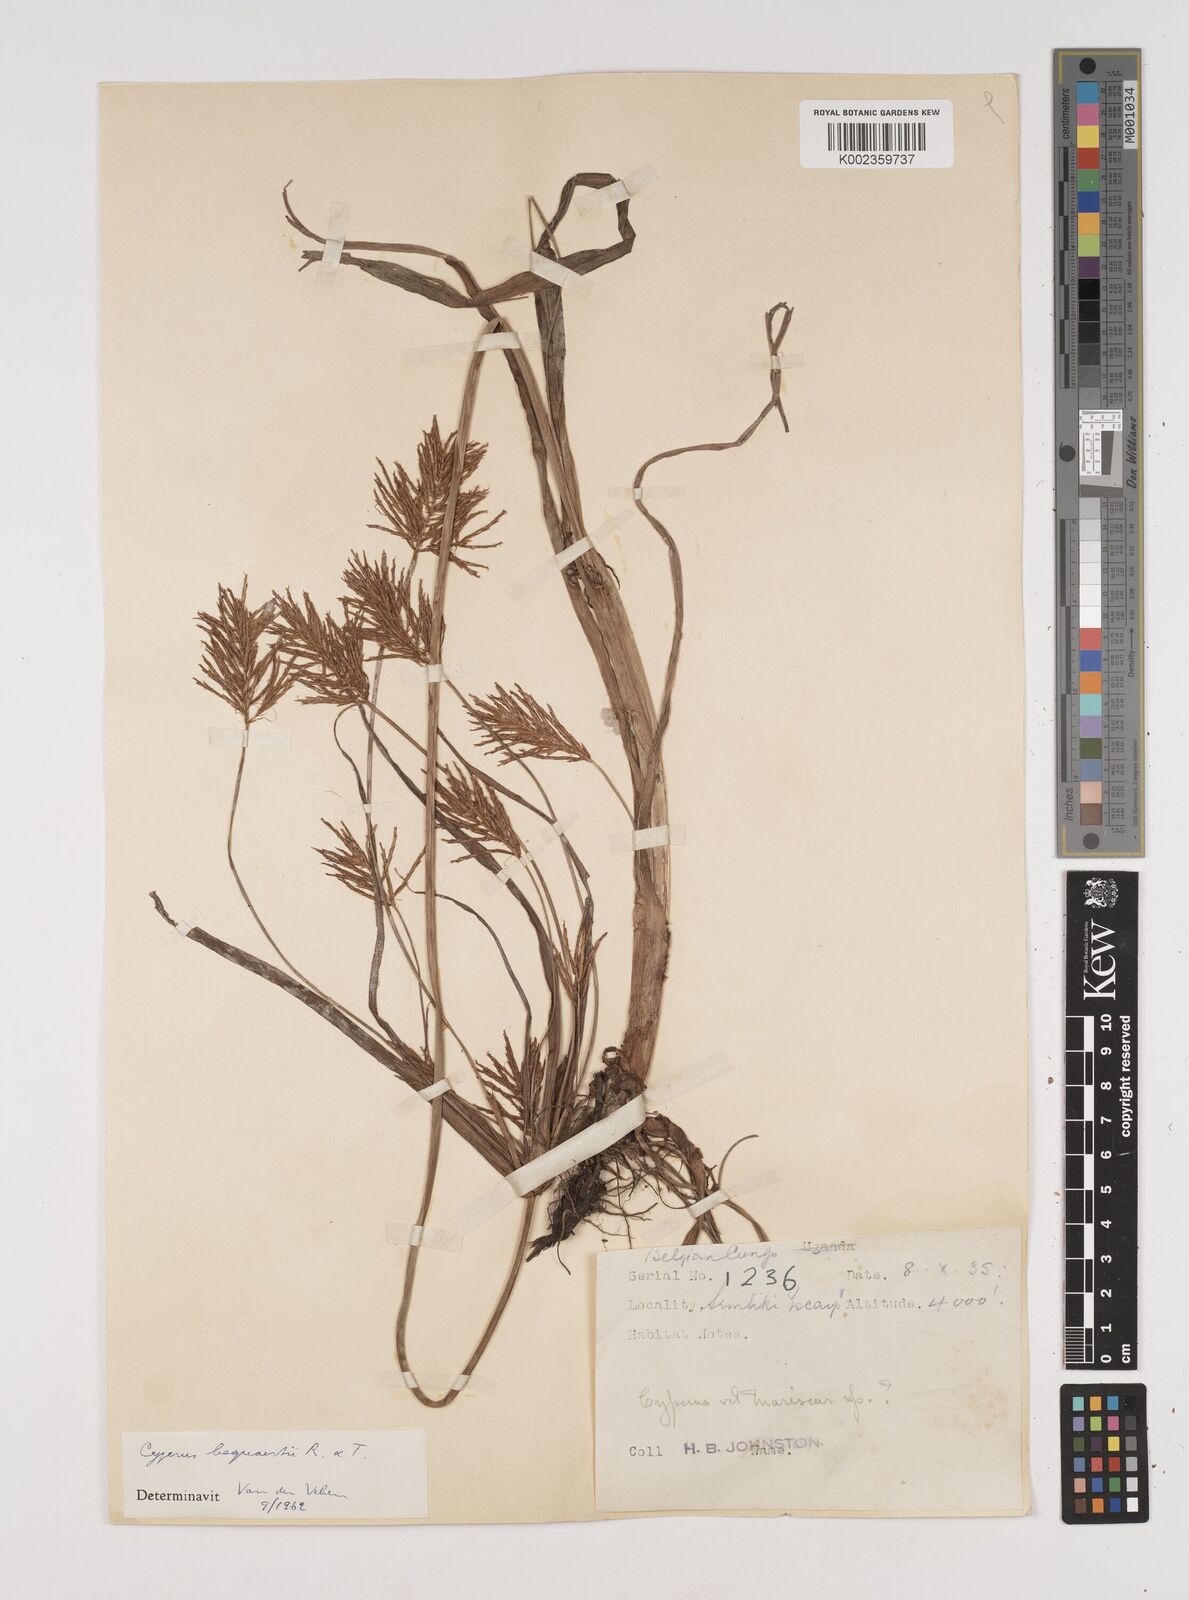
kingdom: Plantae
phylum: Tracheophyta
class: Liliopsida
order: Poales
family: Cyperaceae
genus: Cyperus
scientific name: Cyperus ferrugineoviridis
